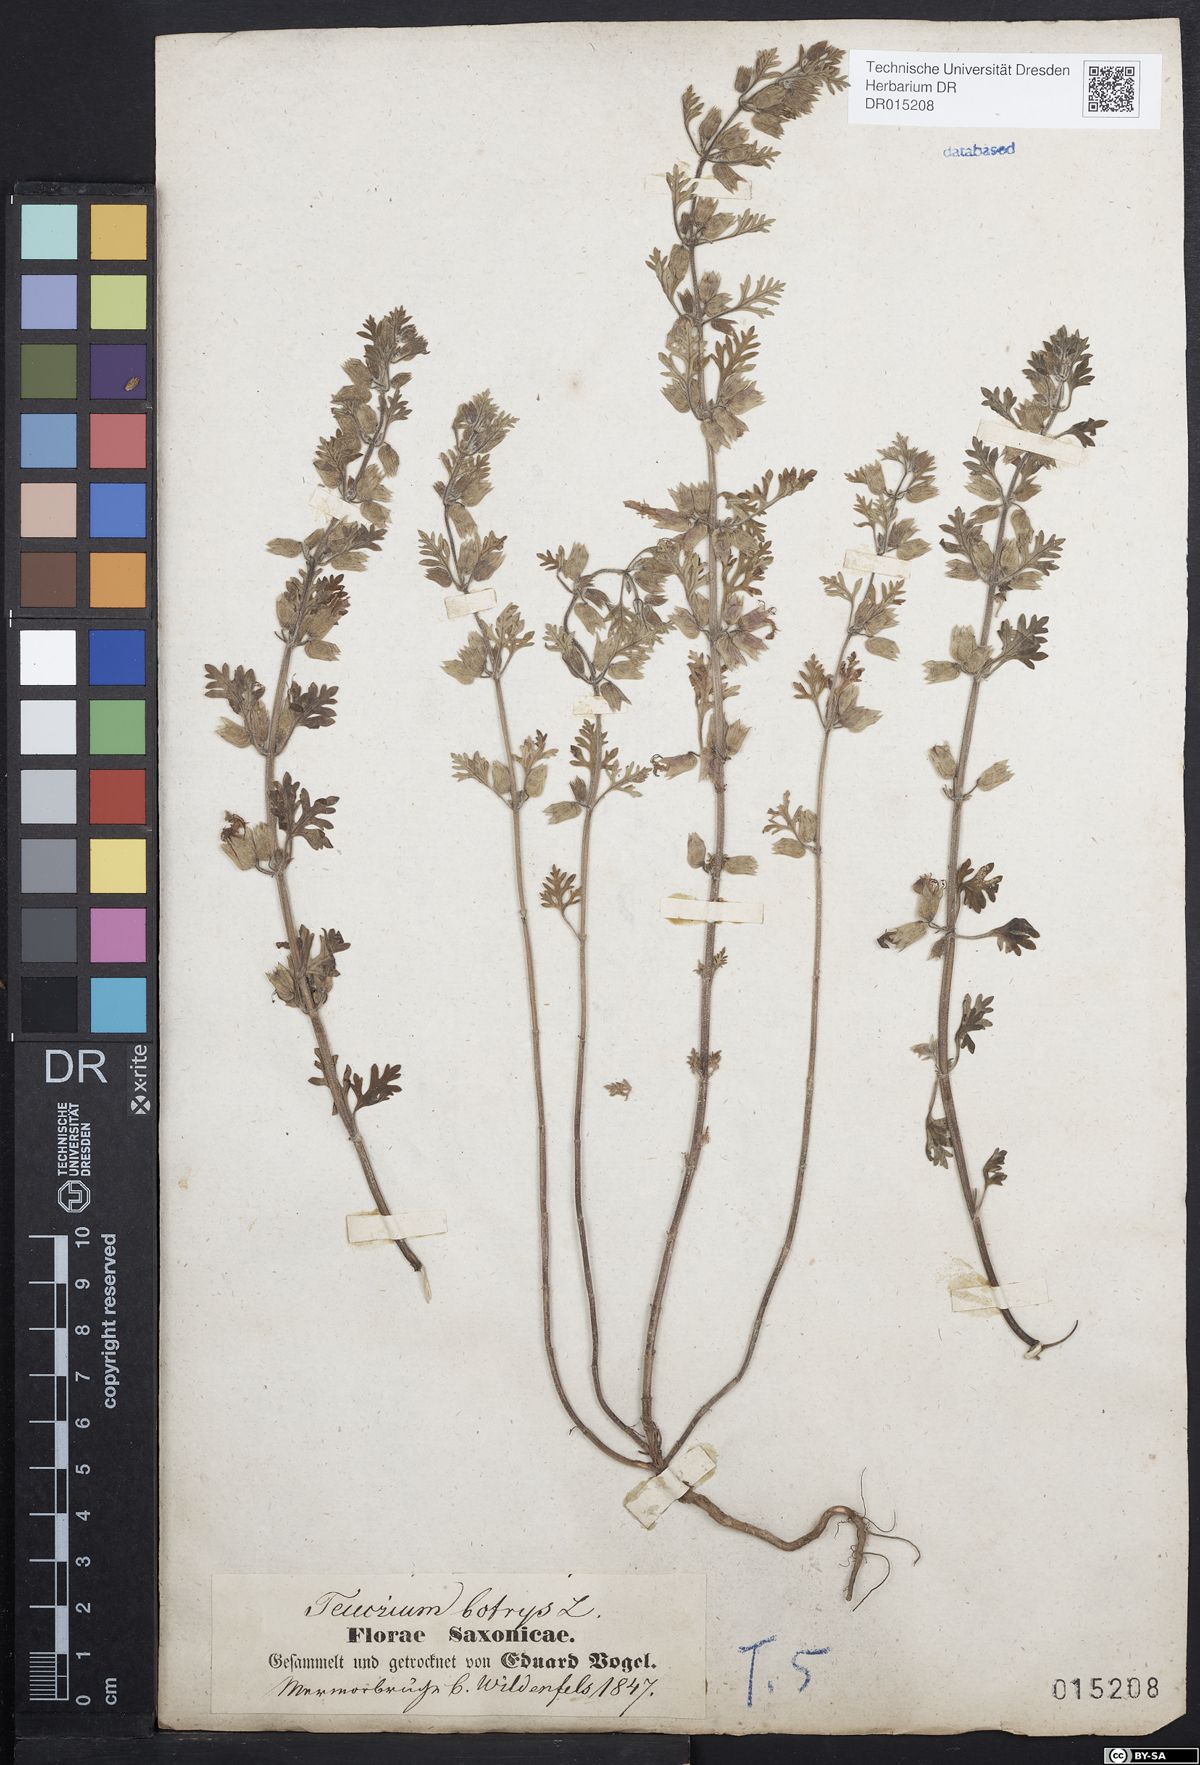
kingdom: Plantae
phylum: Tracheophyta
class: Magnoliopsida
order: Lamiales
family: Lamiaceae
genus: Teucrium
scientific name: Teucrium botrys
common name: Cut-leaved germander
